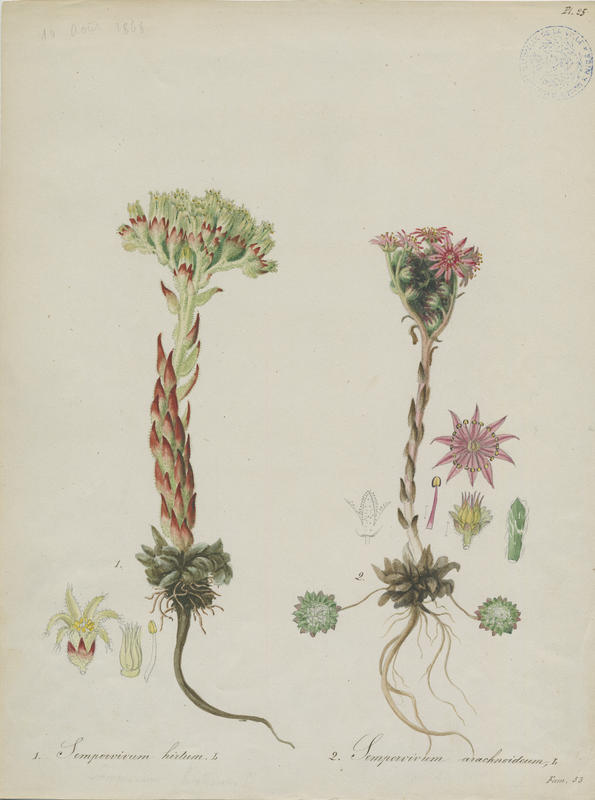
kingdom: Plantae
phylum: Tracheophyta
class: Magnoliopsida
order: Saxifragales
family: Crassulaceae
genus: Sempervivum
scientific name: Sempervivum arachnoideum
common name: Cobweb house-leek
